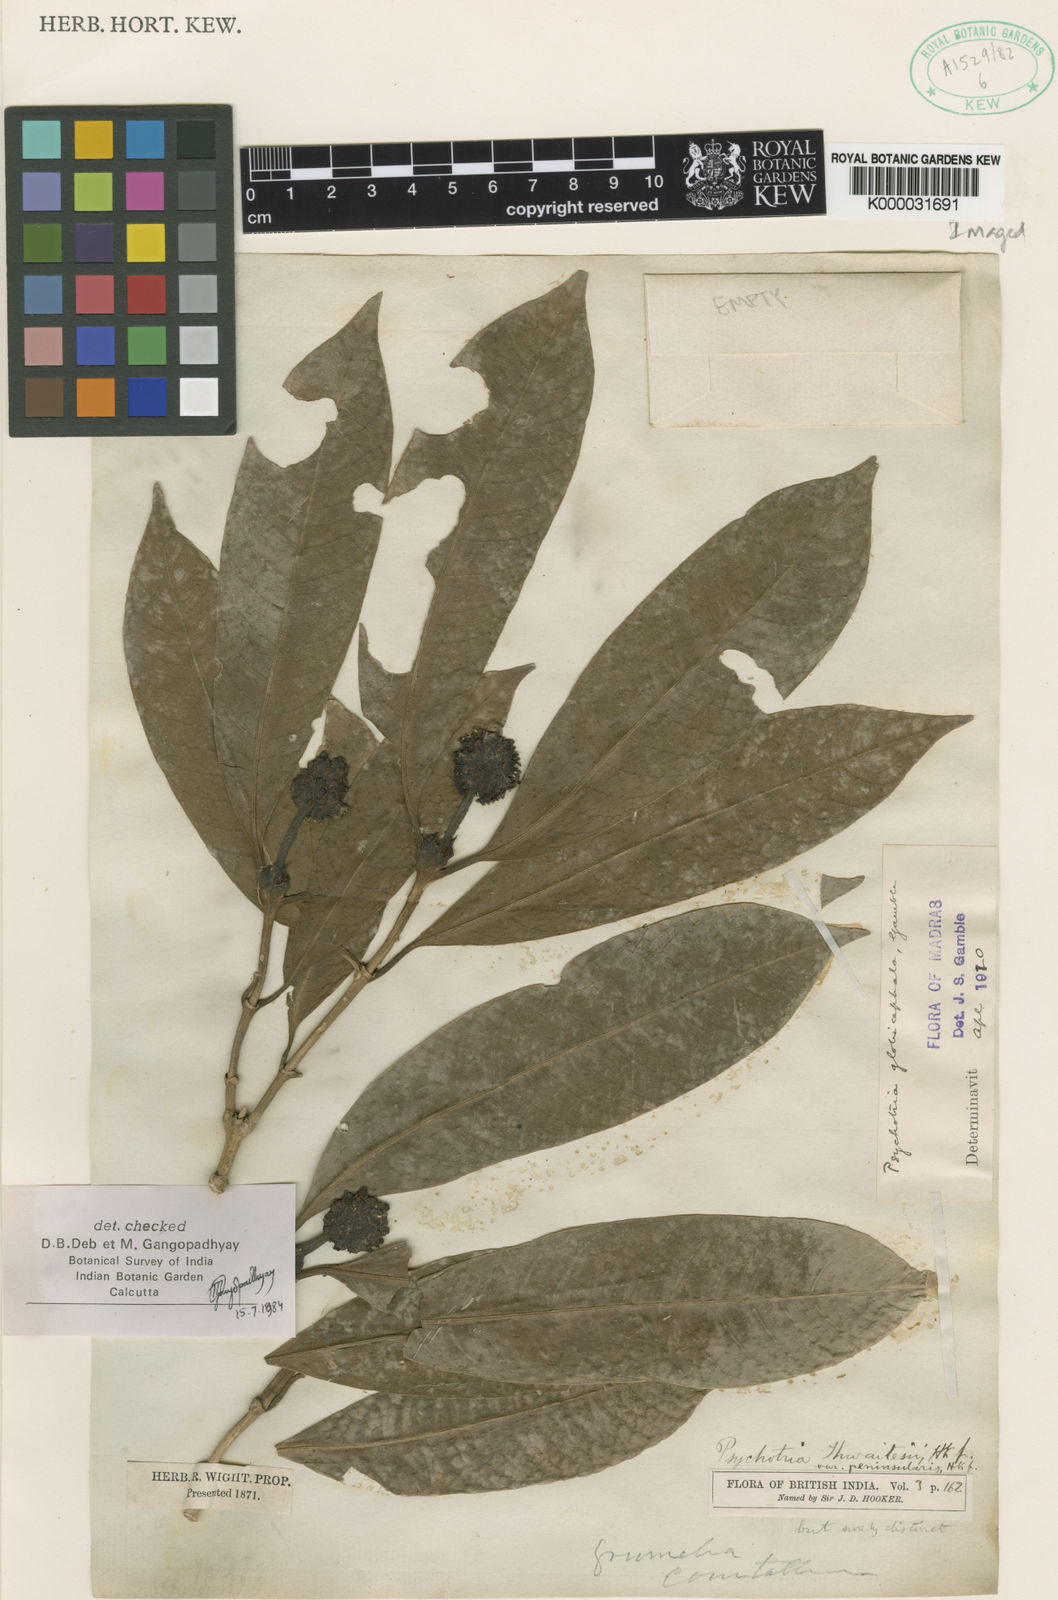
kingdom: Plantae
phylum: Tracheophyta
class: Magnoliopsida
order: Gentianales
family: Rubiaceae
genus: Psychotria
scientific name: Psychotria globicephala
